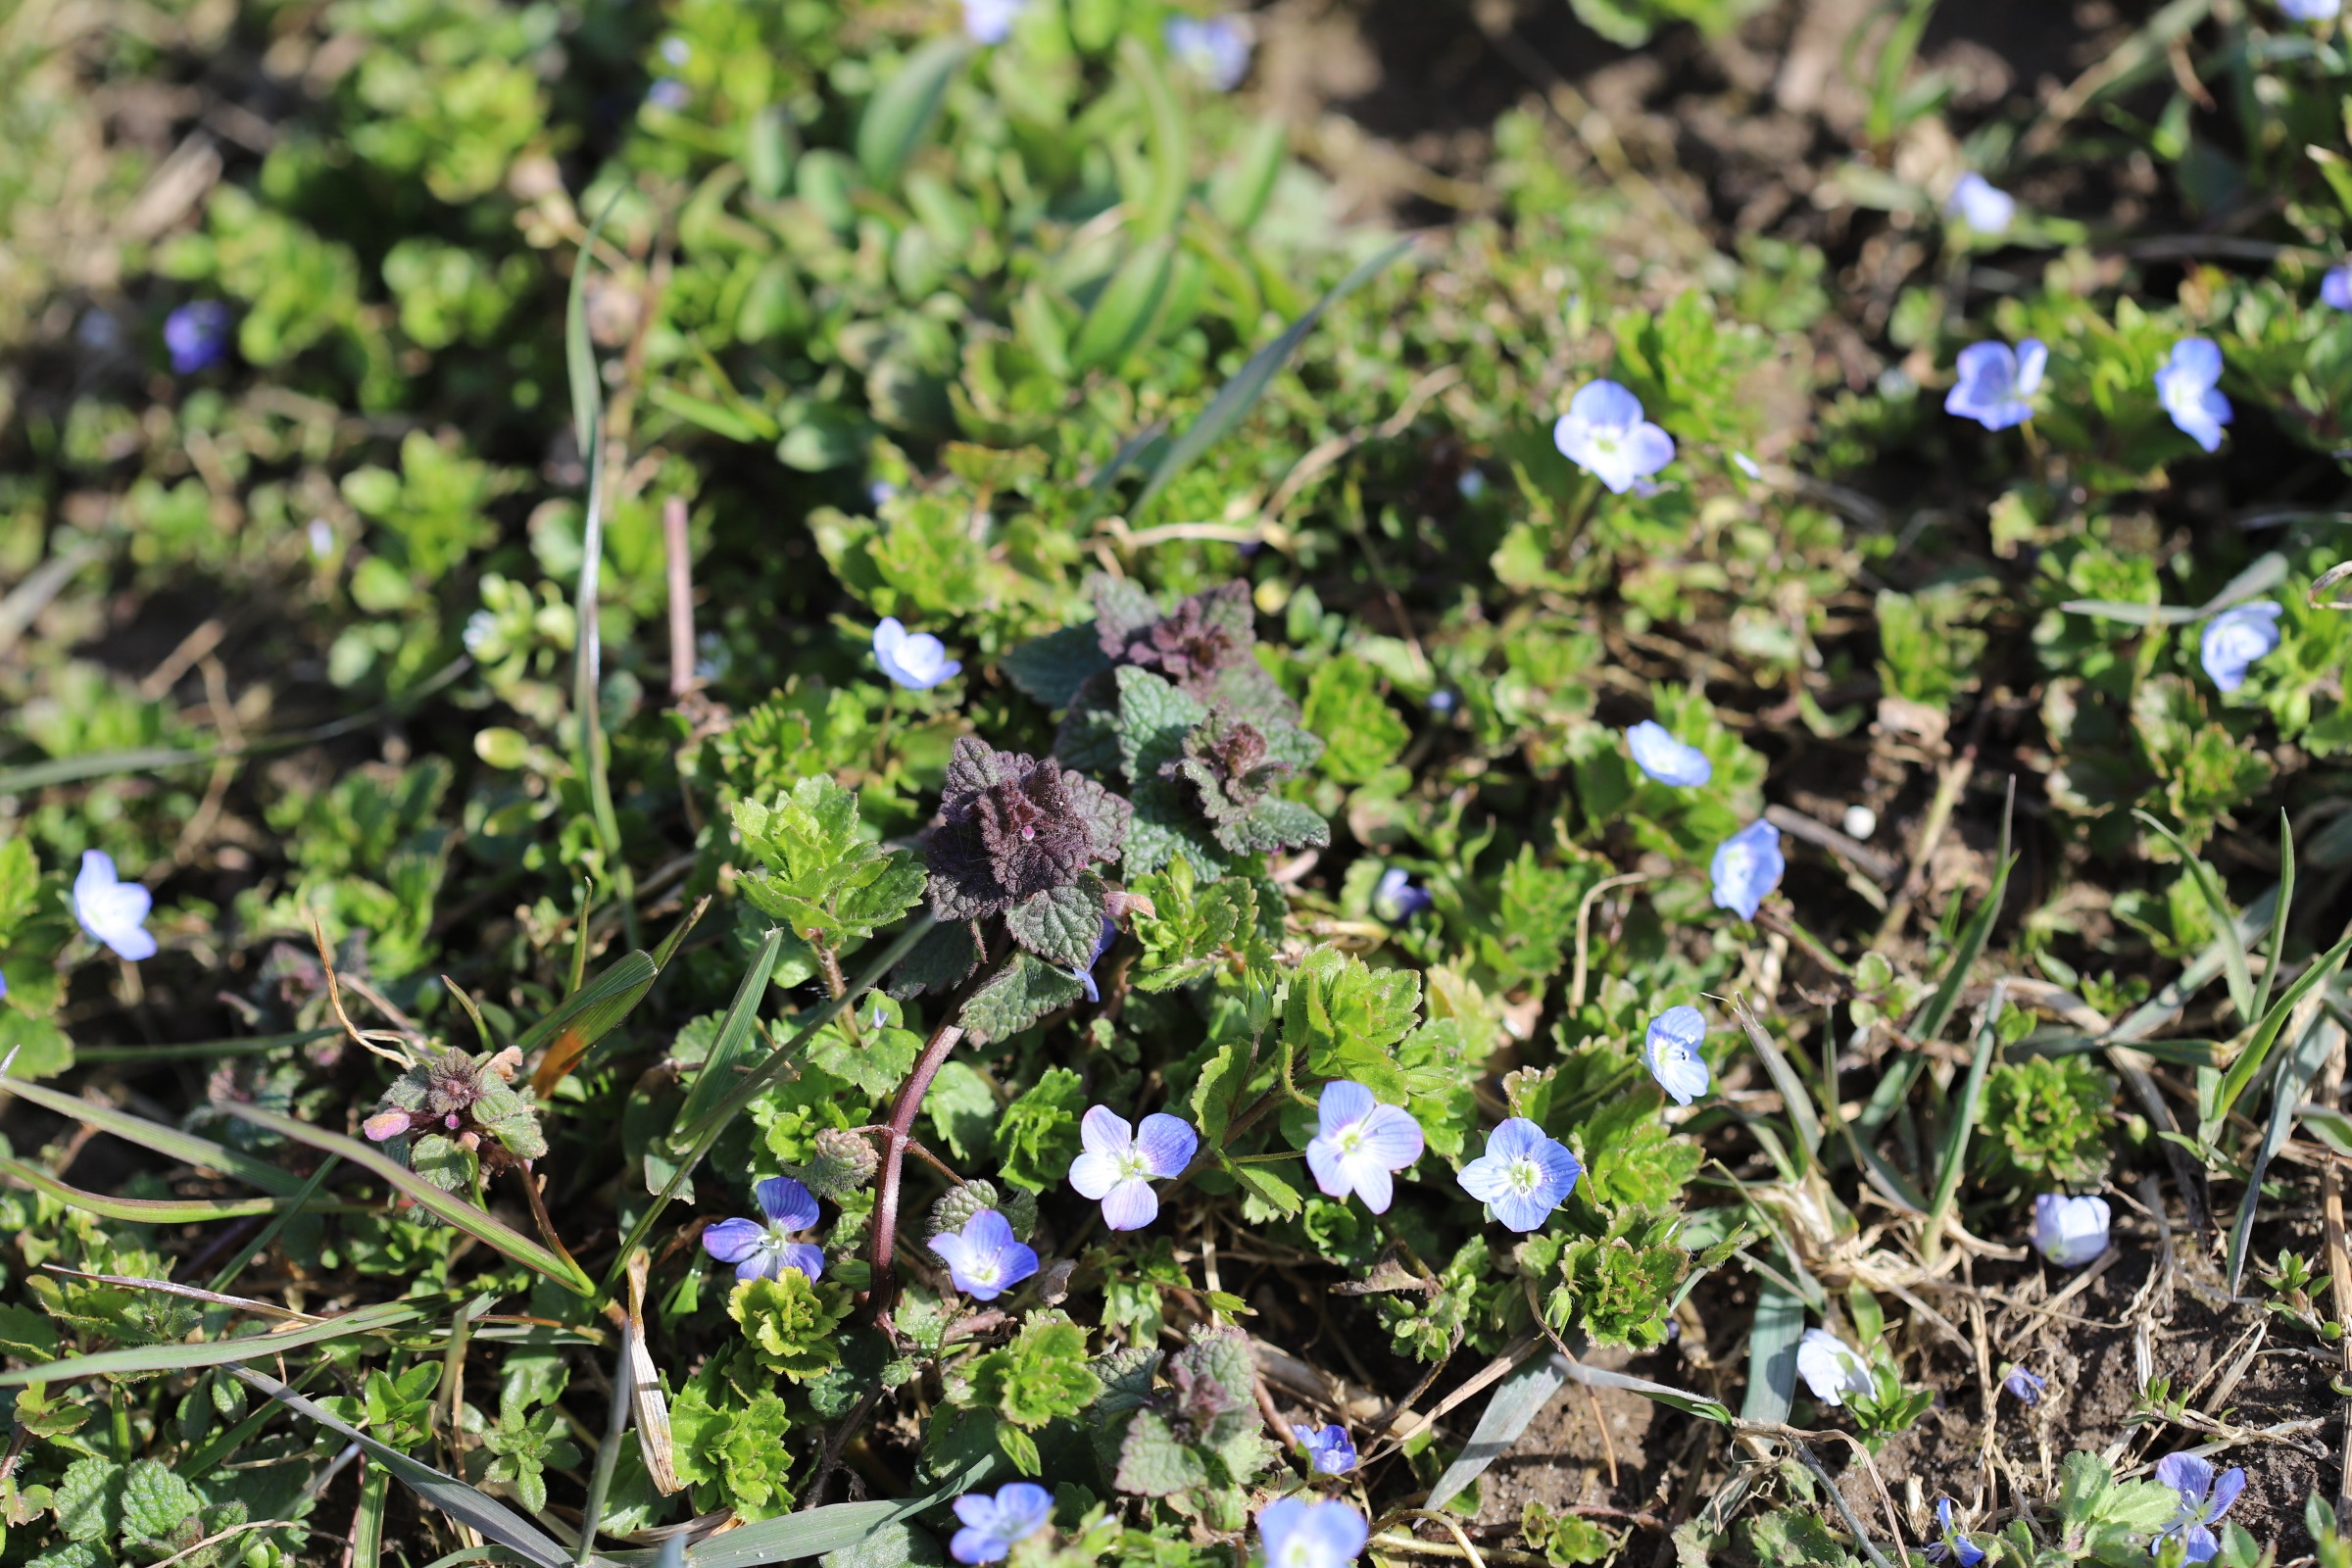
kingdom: Plantae
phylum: Tracheophyta
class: Magnoliopsida
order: Lamiales
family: Plantaginaceae
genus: Veronica
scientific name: Veronica persica
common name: Storkronet ærenpris
